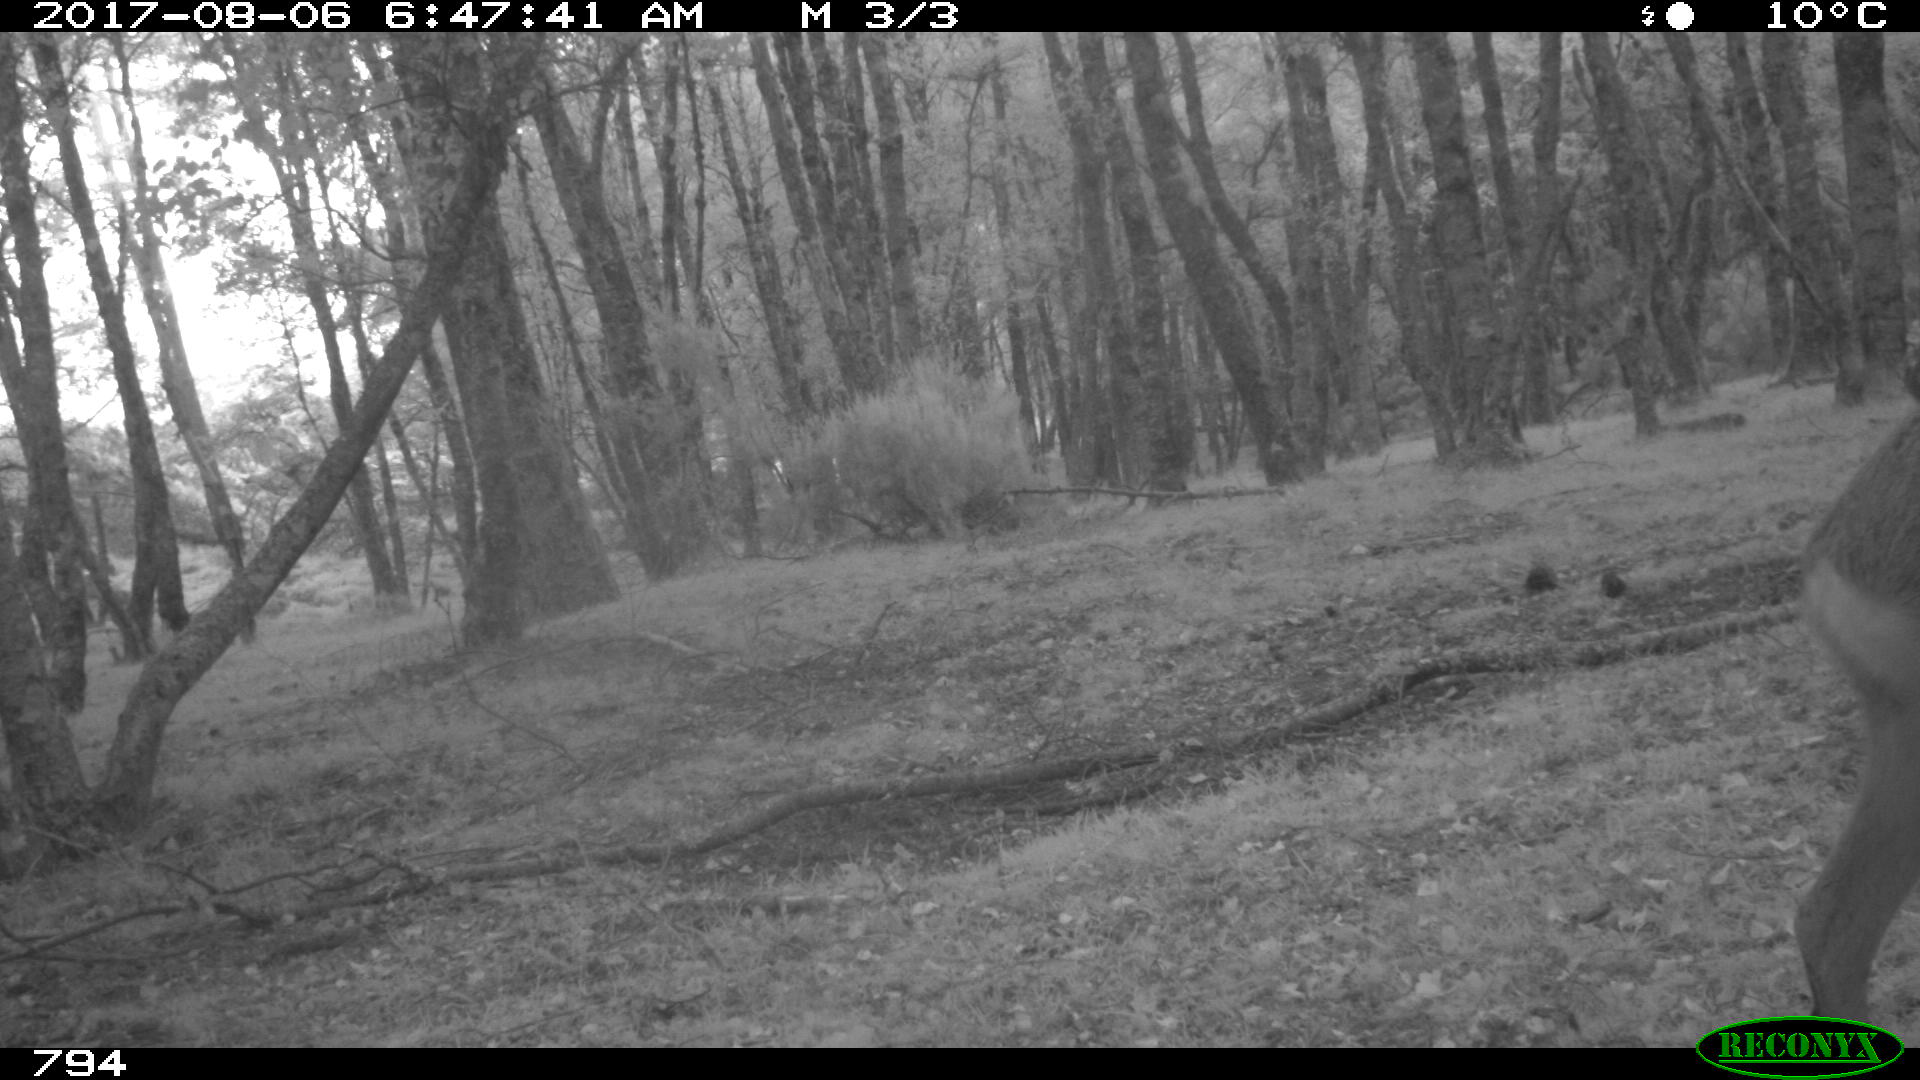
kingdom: Animalia
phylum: Chordata
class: Mammalia
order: Artiodactyla
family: Cervidae
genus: Capreolus
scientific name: Capreolus capreolus
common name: Western roe deer
